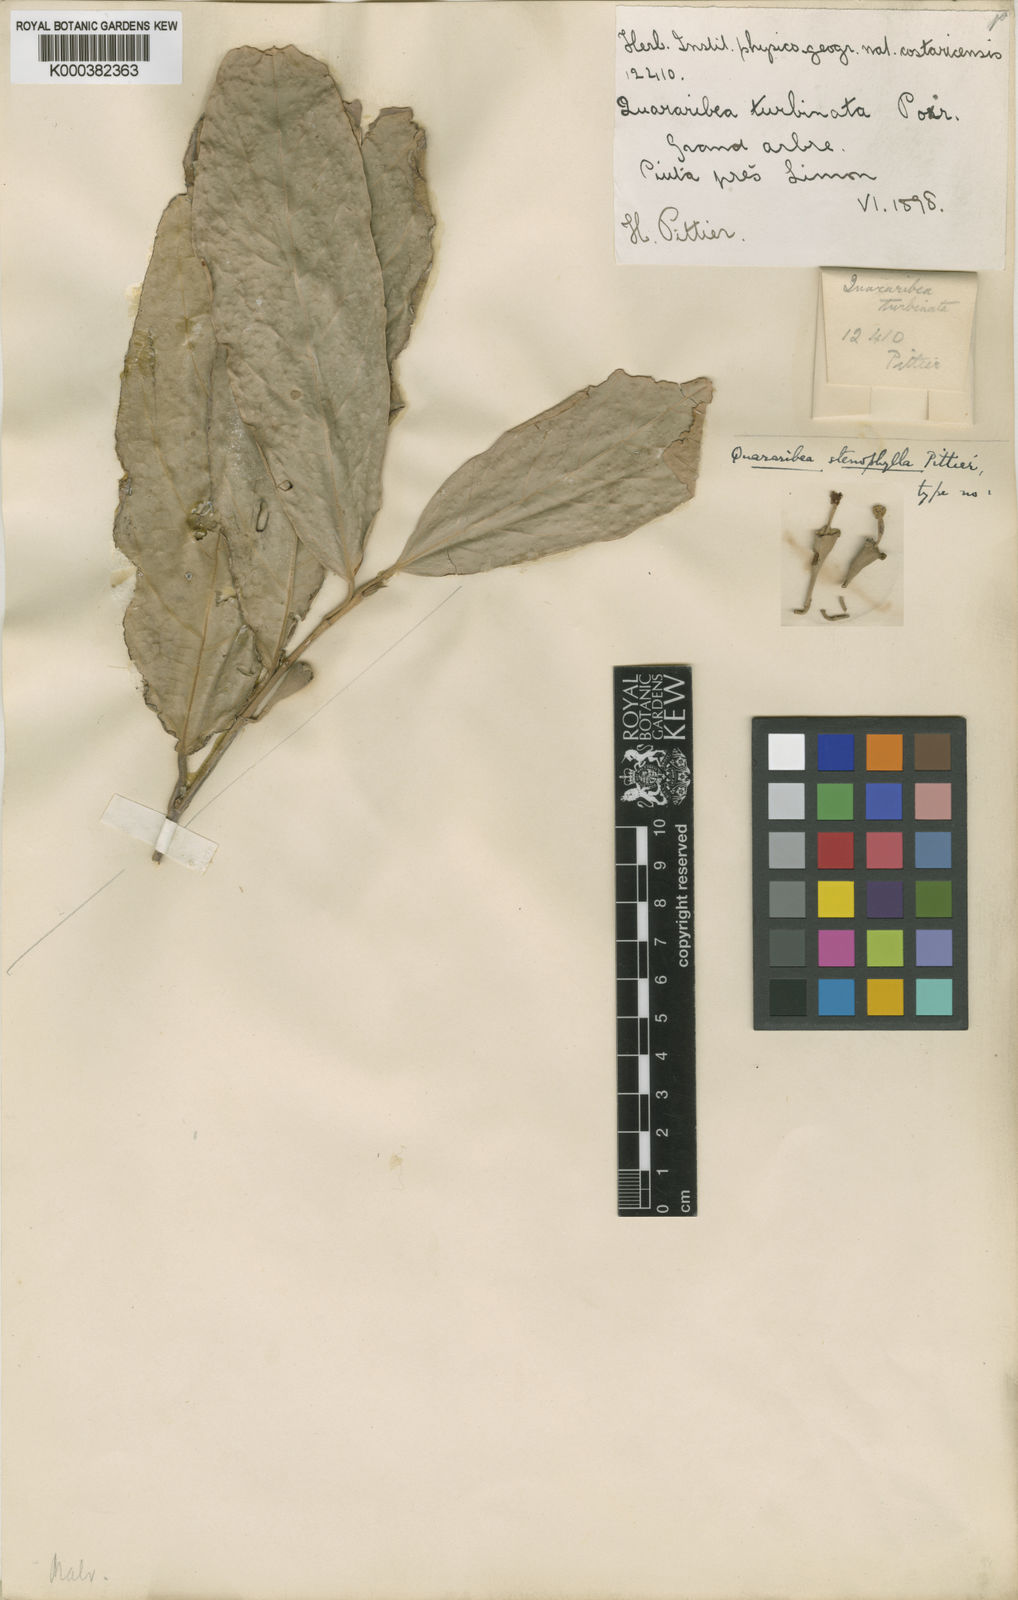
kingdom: Plantae
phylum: Tracheophyta
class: Magnoliopsida
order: Malvales
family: Malvaceae
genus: Quararibea
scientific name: Quararibea stenophylla
